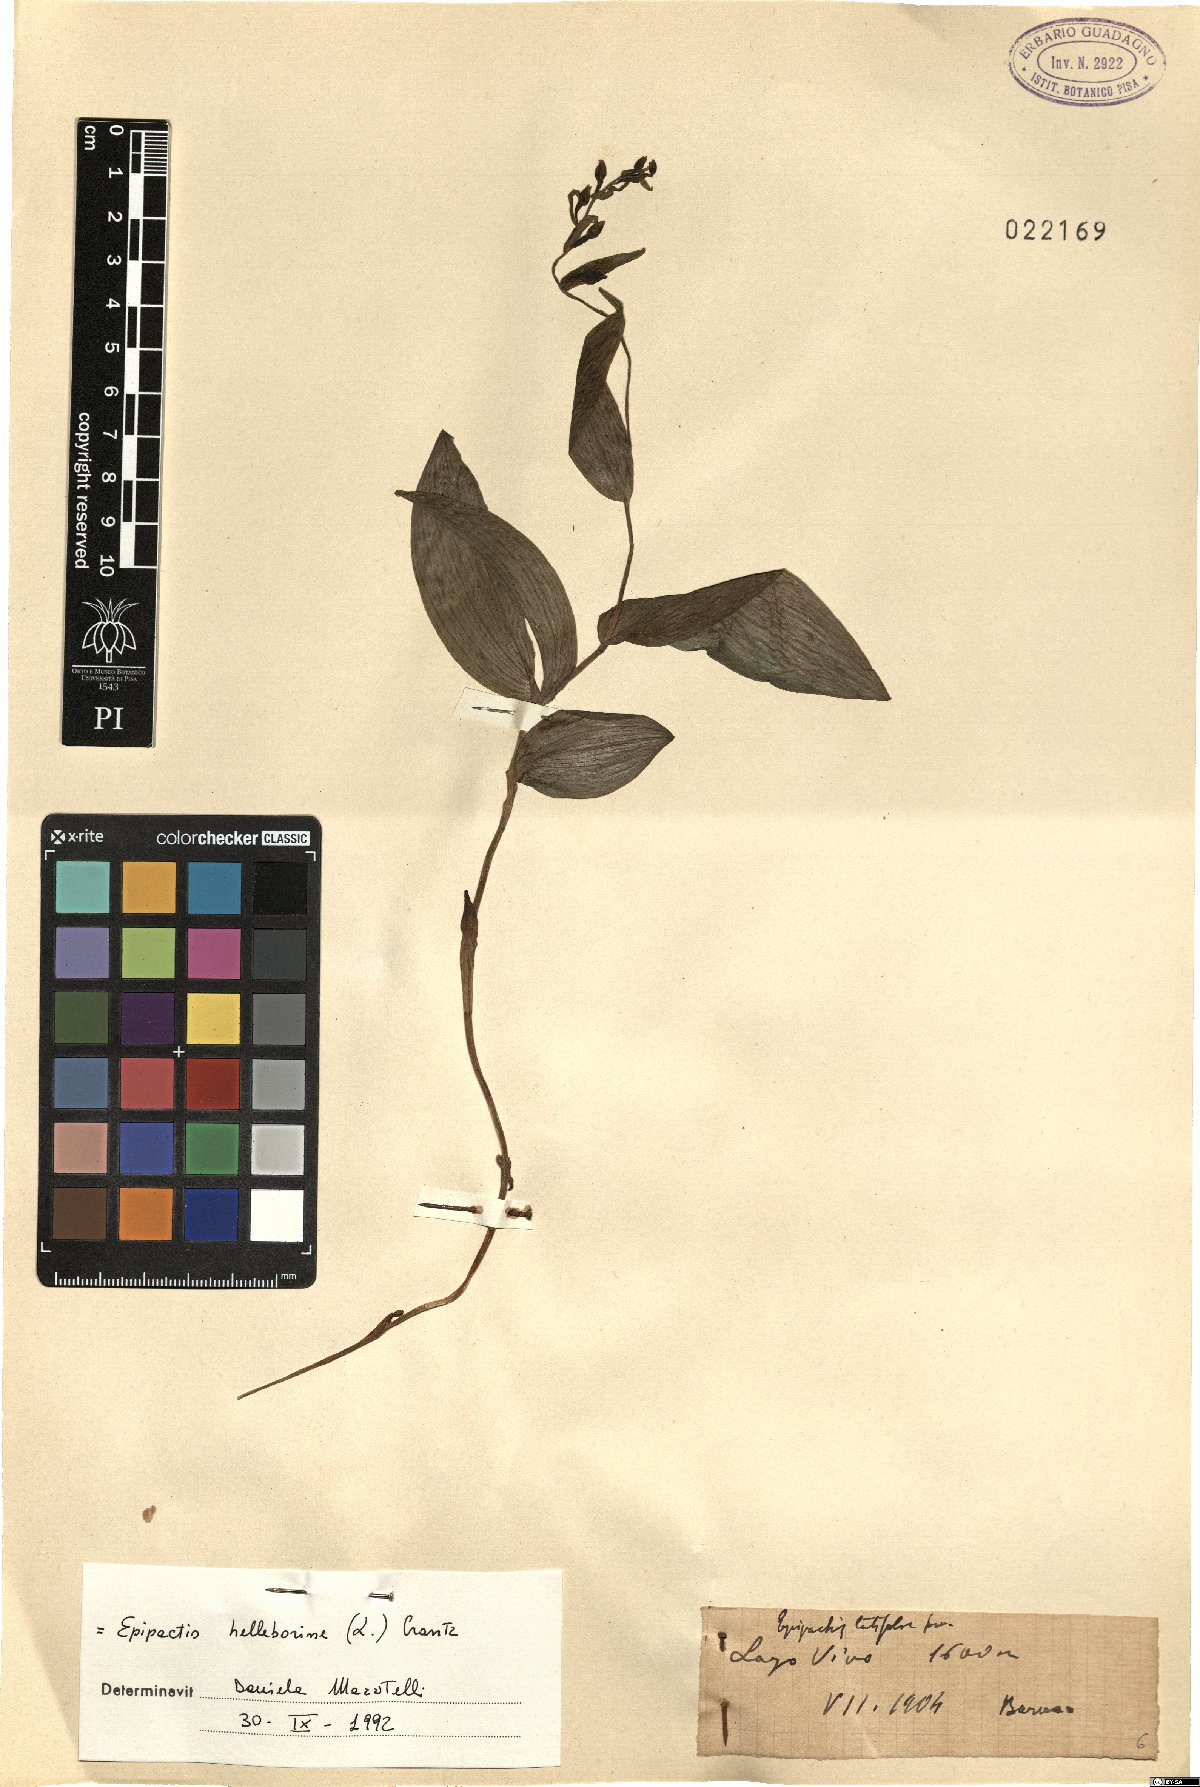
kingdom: Plantae
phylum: Tracheophyta
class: Liliopsida
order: Asparagales
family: Orchidaceae
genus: Epipactis
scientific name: Epipactis helleborine
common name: Broad-leaved helleborine
